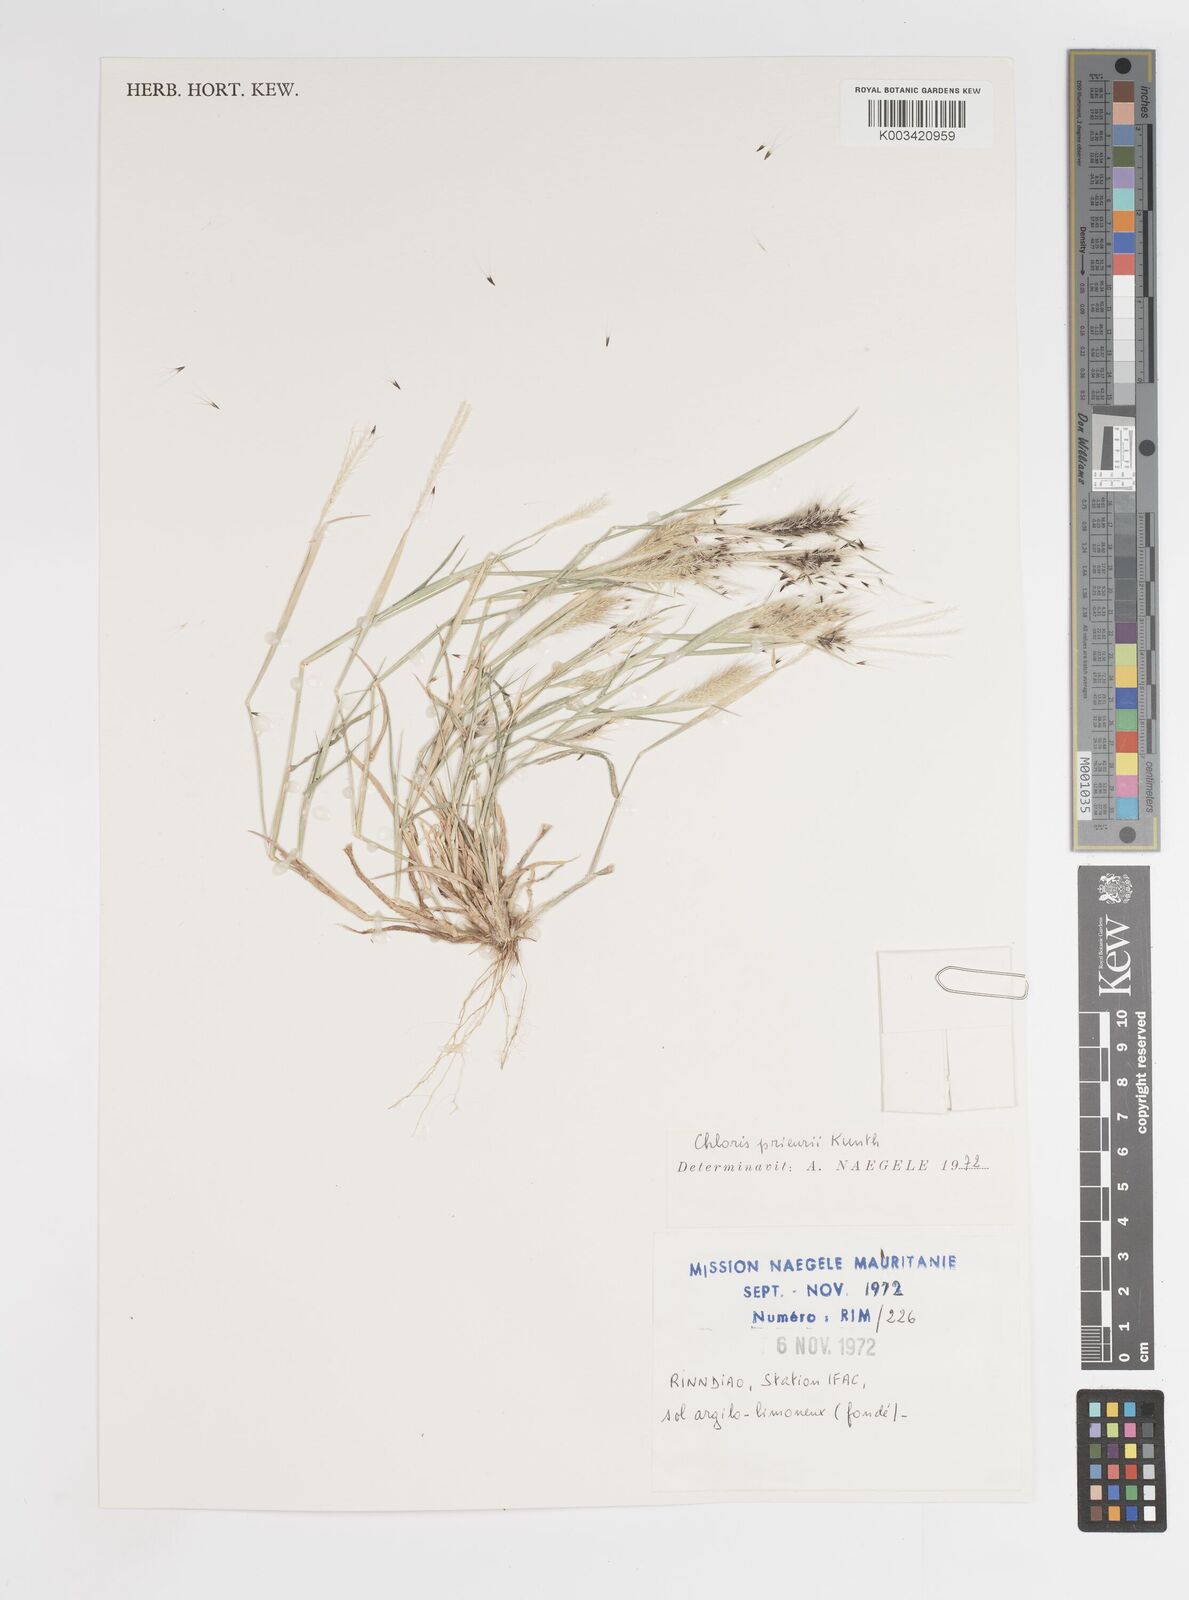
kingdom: Plantae
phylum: Tracheophyta
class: Liliopsida
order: Poales
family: Poaceae
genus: Enteropogon
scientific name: Enteropogon prieurii
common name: Prieur's umbrellagrass
